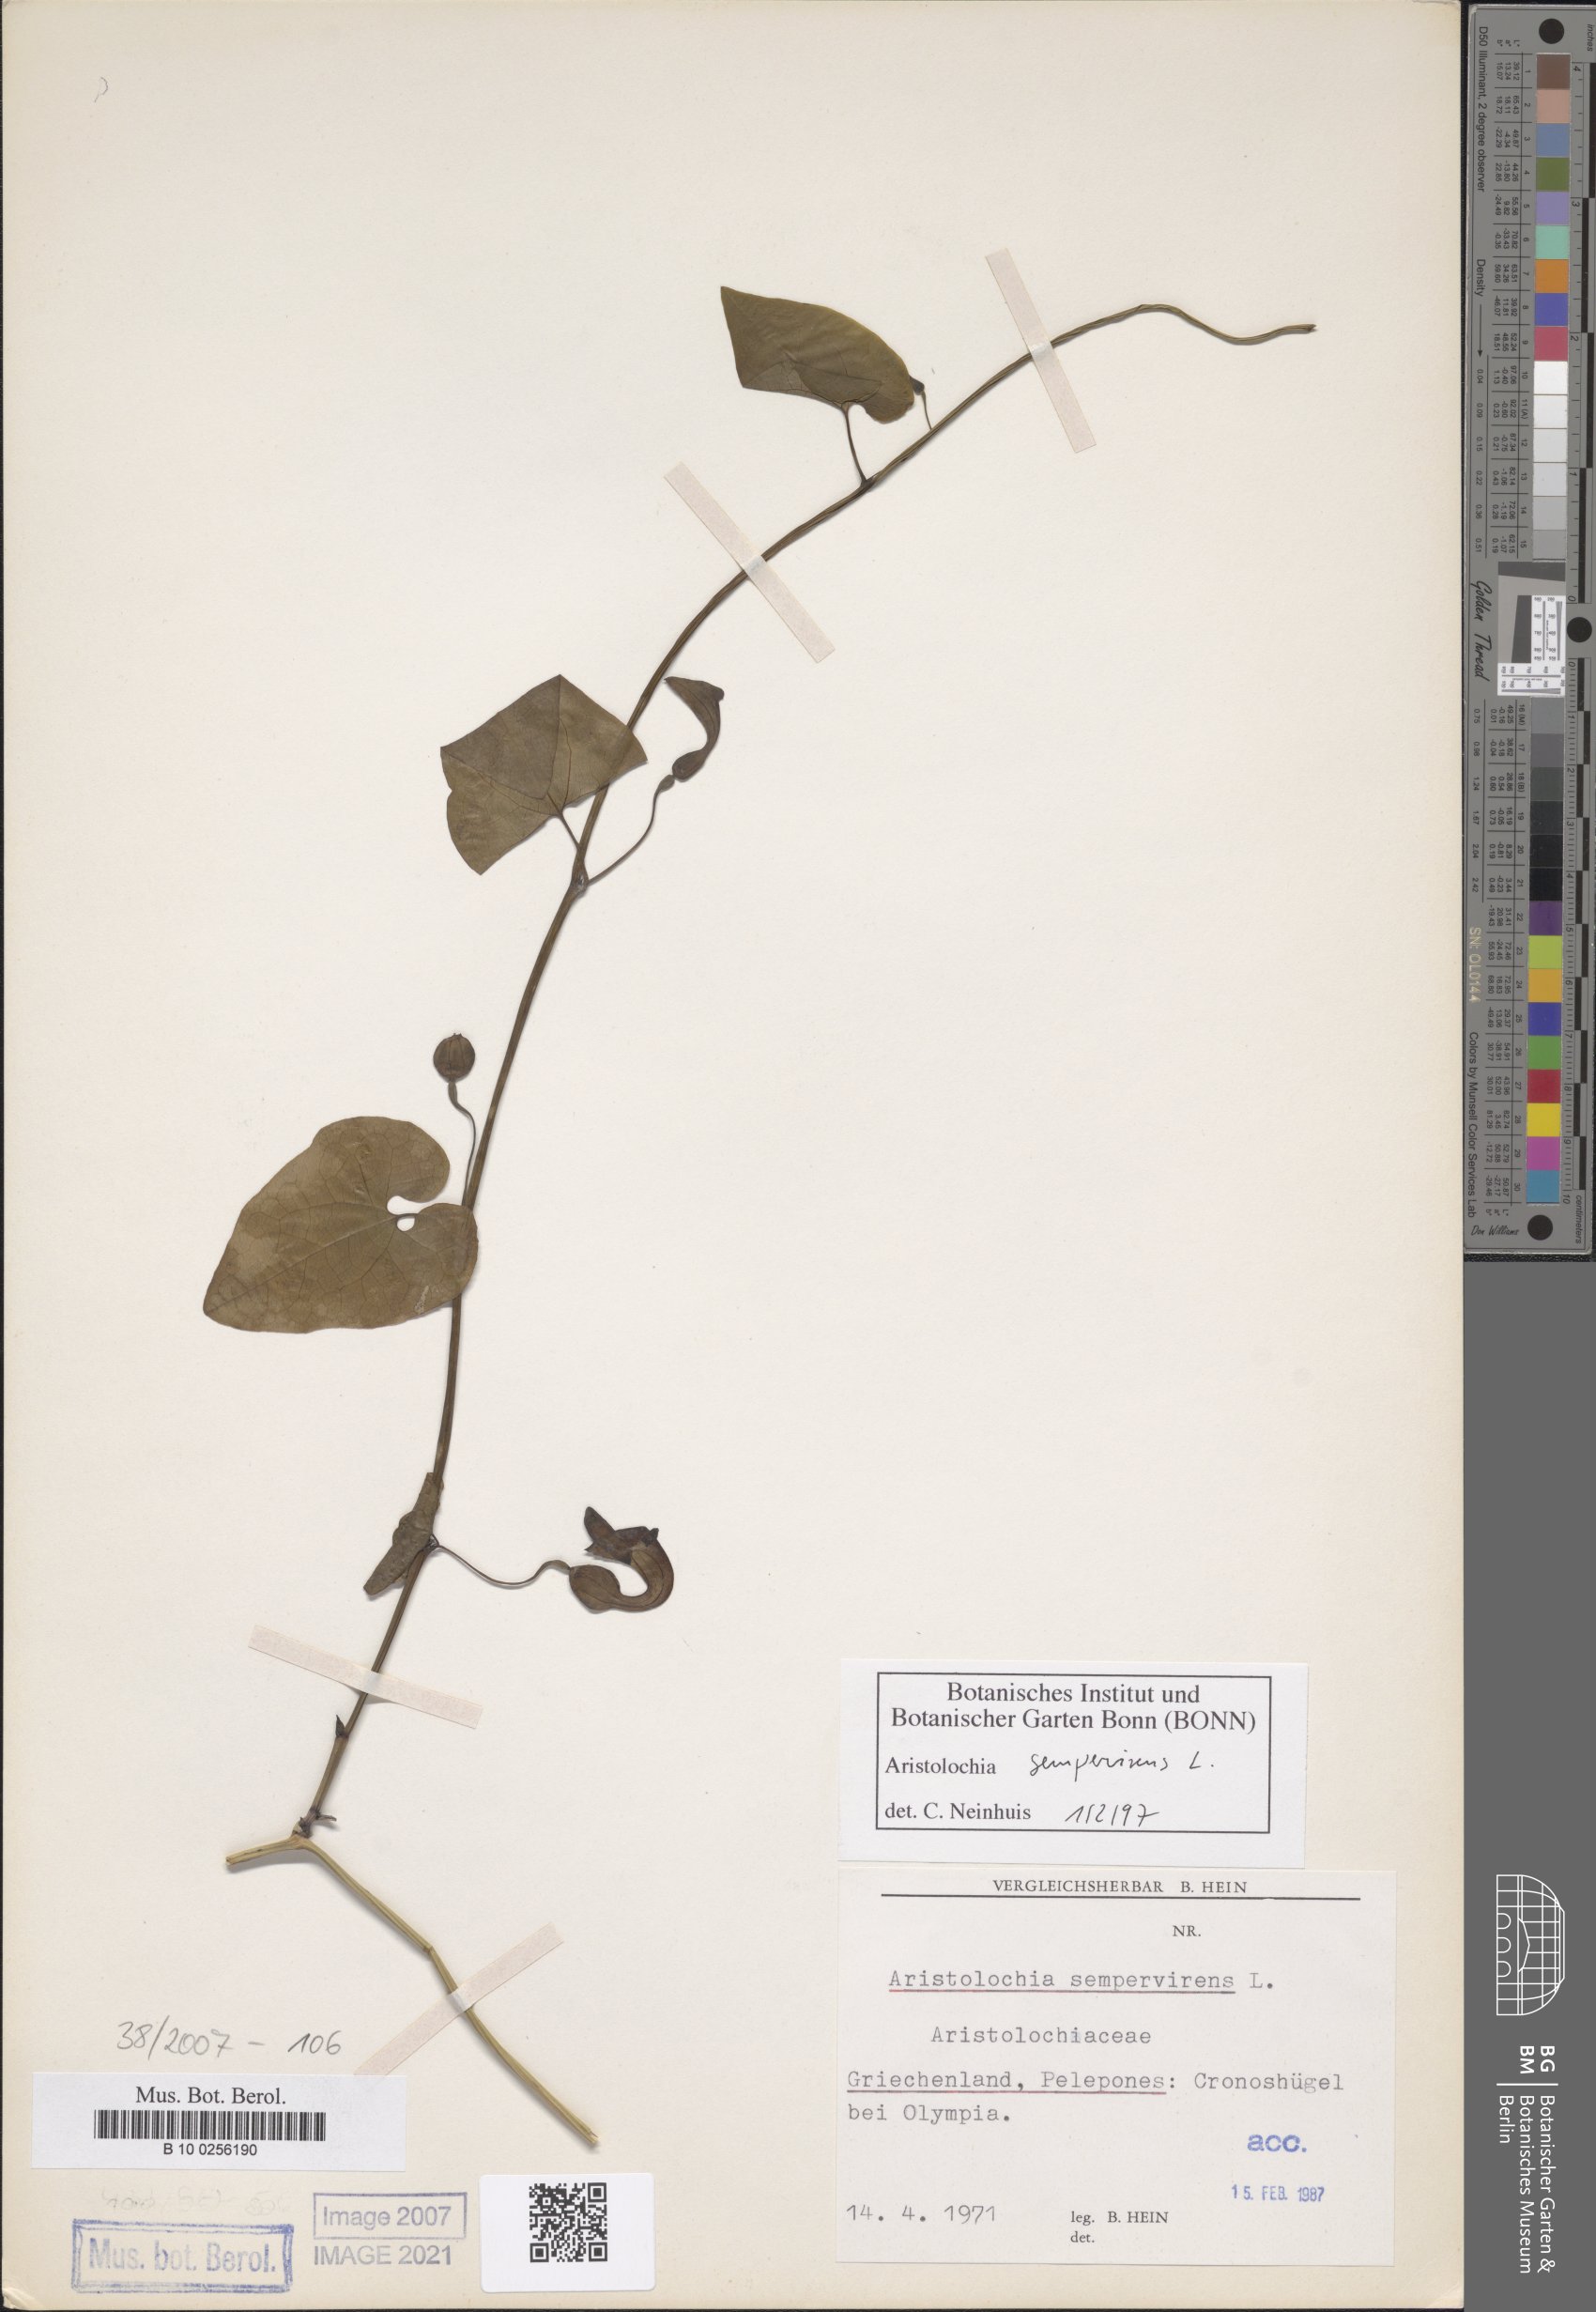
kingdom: Plantae
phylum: Tracheophyta
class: Magnoliopsida
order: Piperales
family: Aristolochiaceae
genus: Aristolochia
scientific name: Aristolochia sempervirens
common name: Long birthwort
